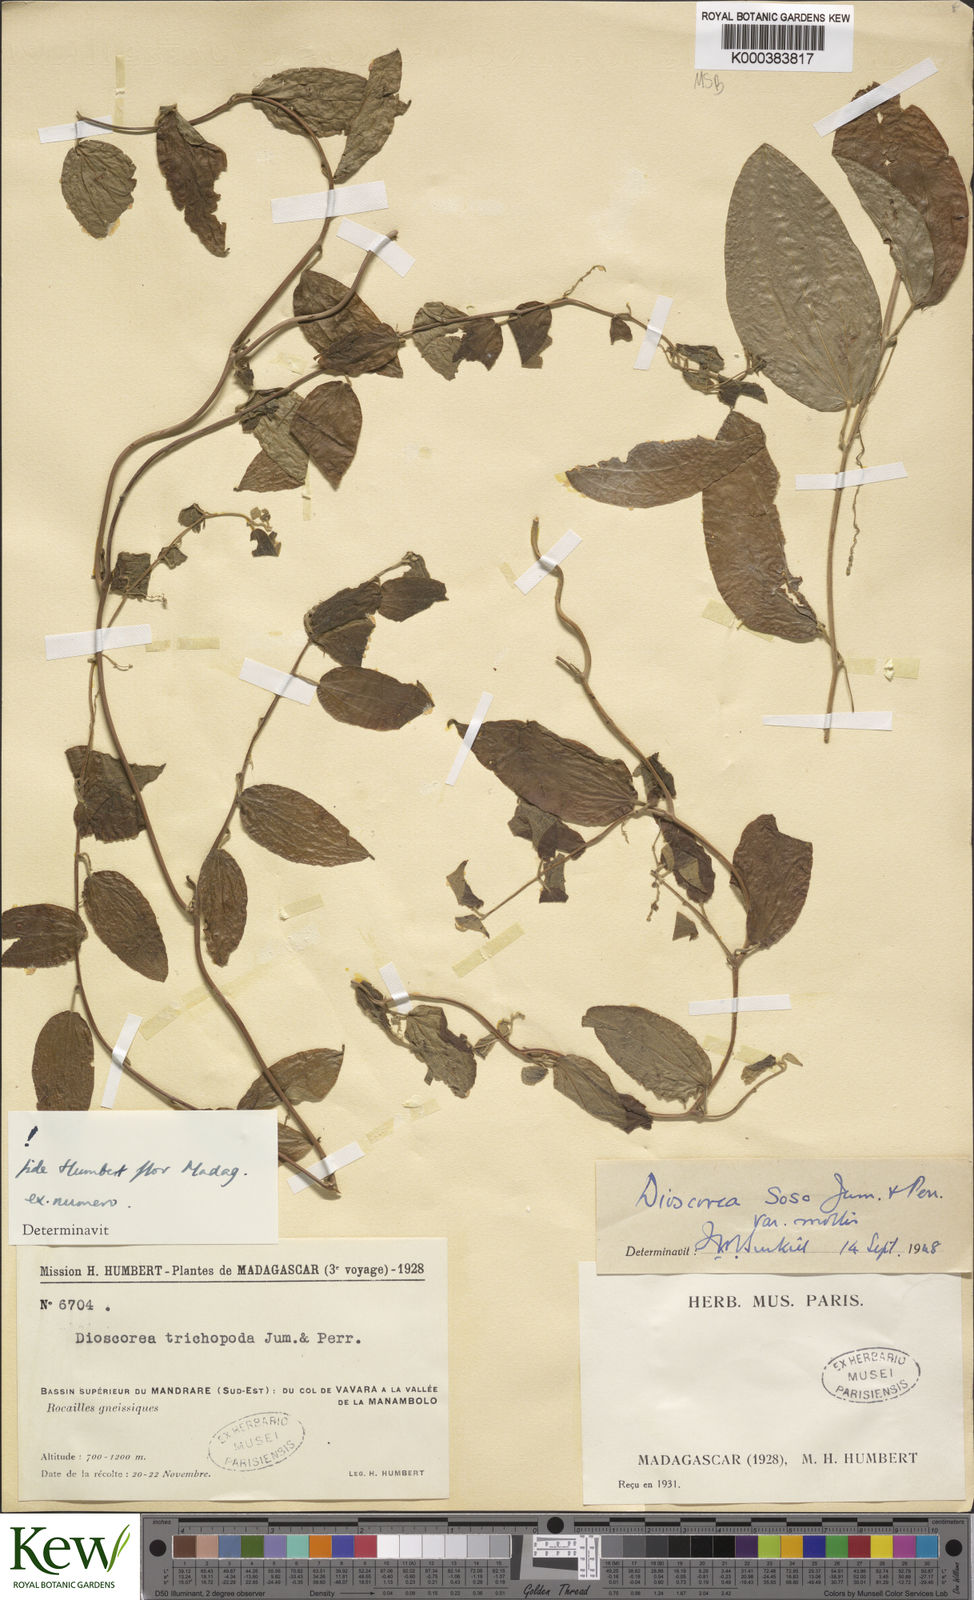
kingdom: Plantae
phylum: Tracheophyta
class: Liliopsida
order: Dioscoreales
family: Dioscoreaceae
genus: Dioscorea
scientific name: Dioscorea
